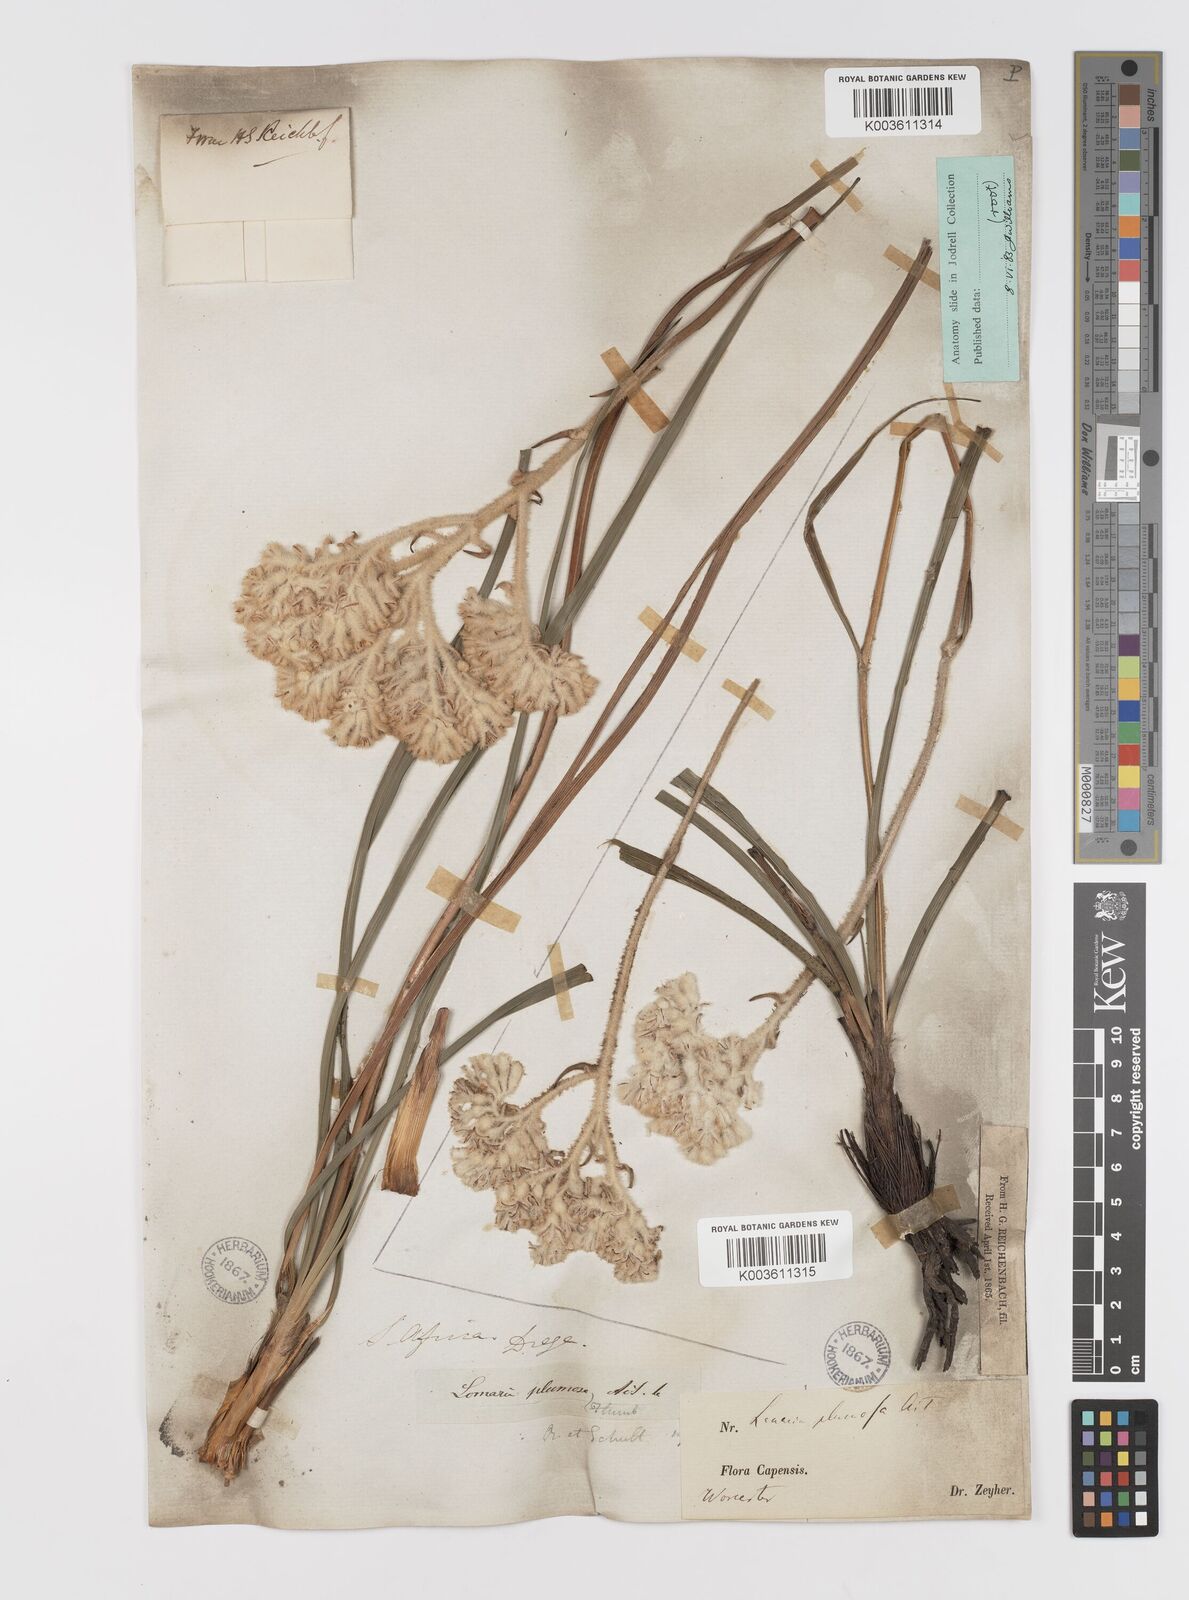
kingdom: Plantae
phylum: Tracheophyta
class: Liliopsida
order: Asparagales
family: Lanariaceae
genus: Lanaria
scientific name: Lanaria lanata
